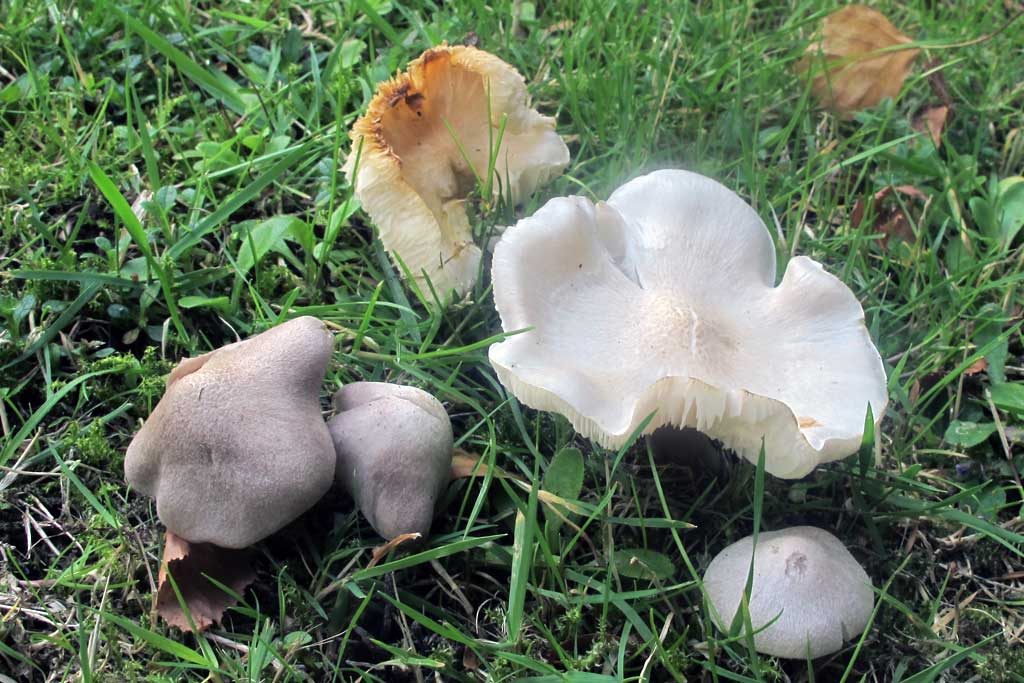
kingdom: Fungi
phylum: Basidiomycota
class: Agaricomycetes
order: Agaricales
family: Tricholomataceae
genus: Tricholoma
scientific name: Tricholoma argyraceum
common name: spids ridderhat
